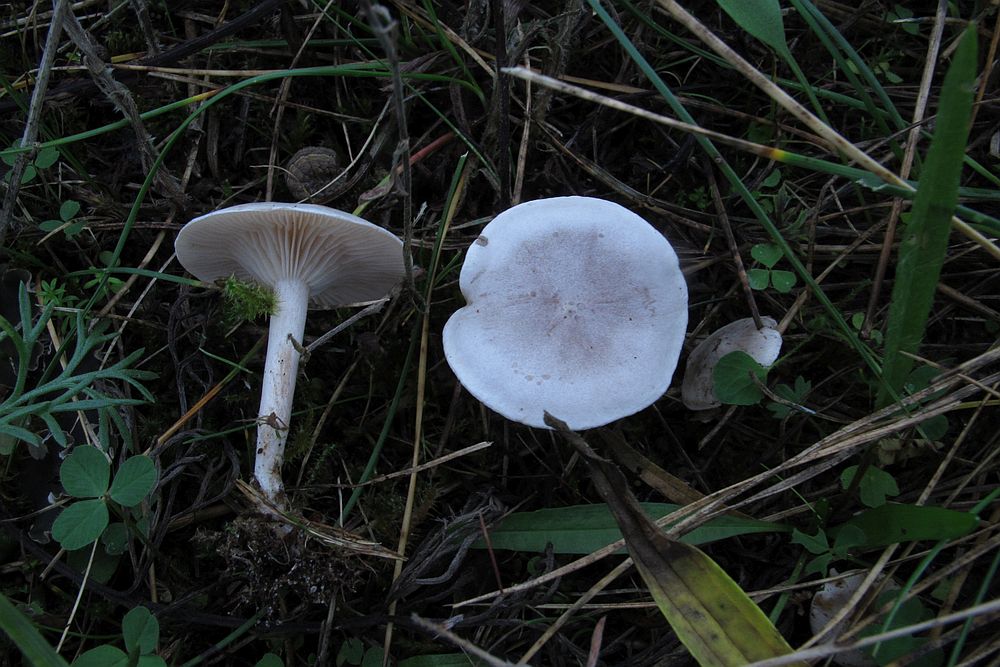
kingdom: Fungi
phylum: Basidiomycota
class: Agaricomycetes
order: Agaricales
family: Tricholomataceae
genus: Clitocybe
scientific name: Clitocybe rivulosa
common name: eng-tragthat
